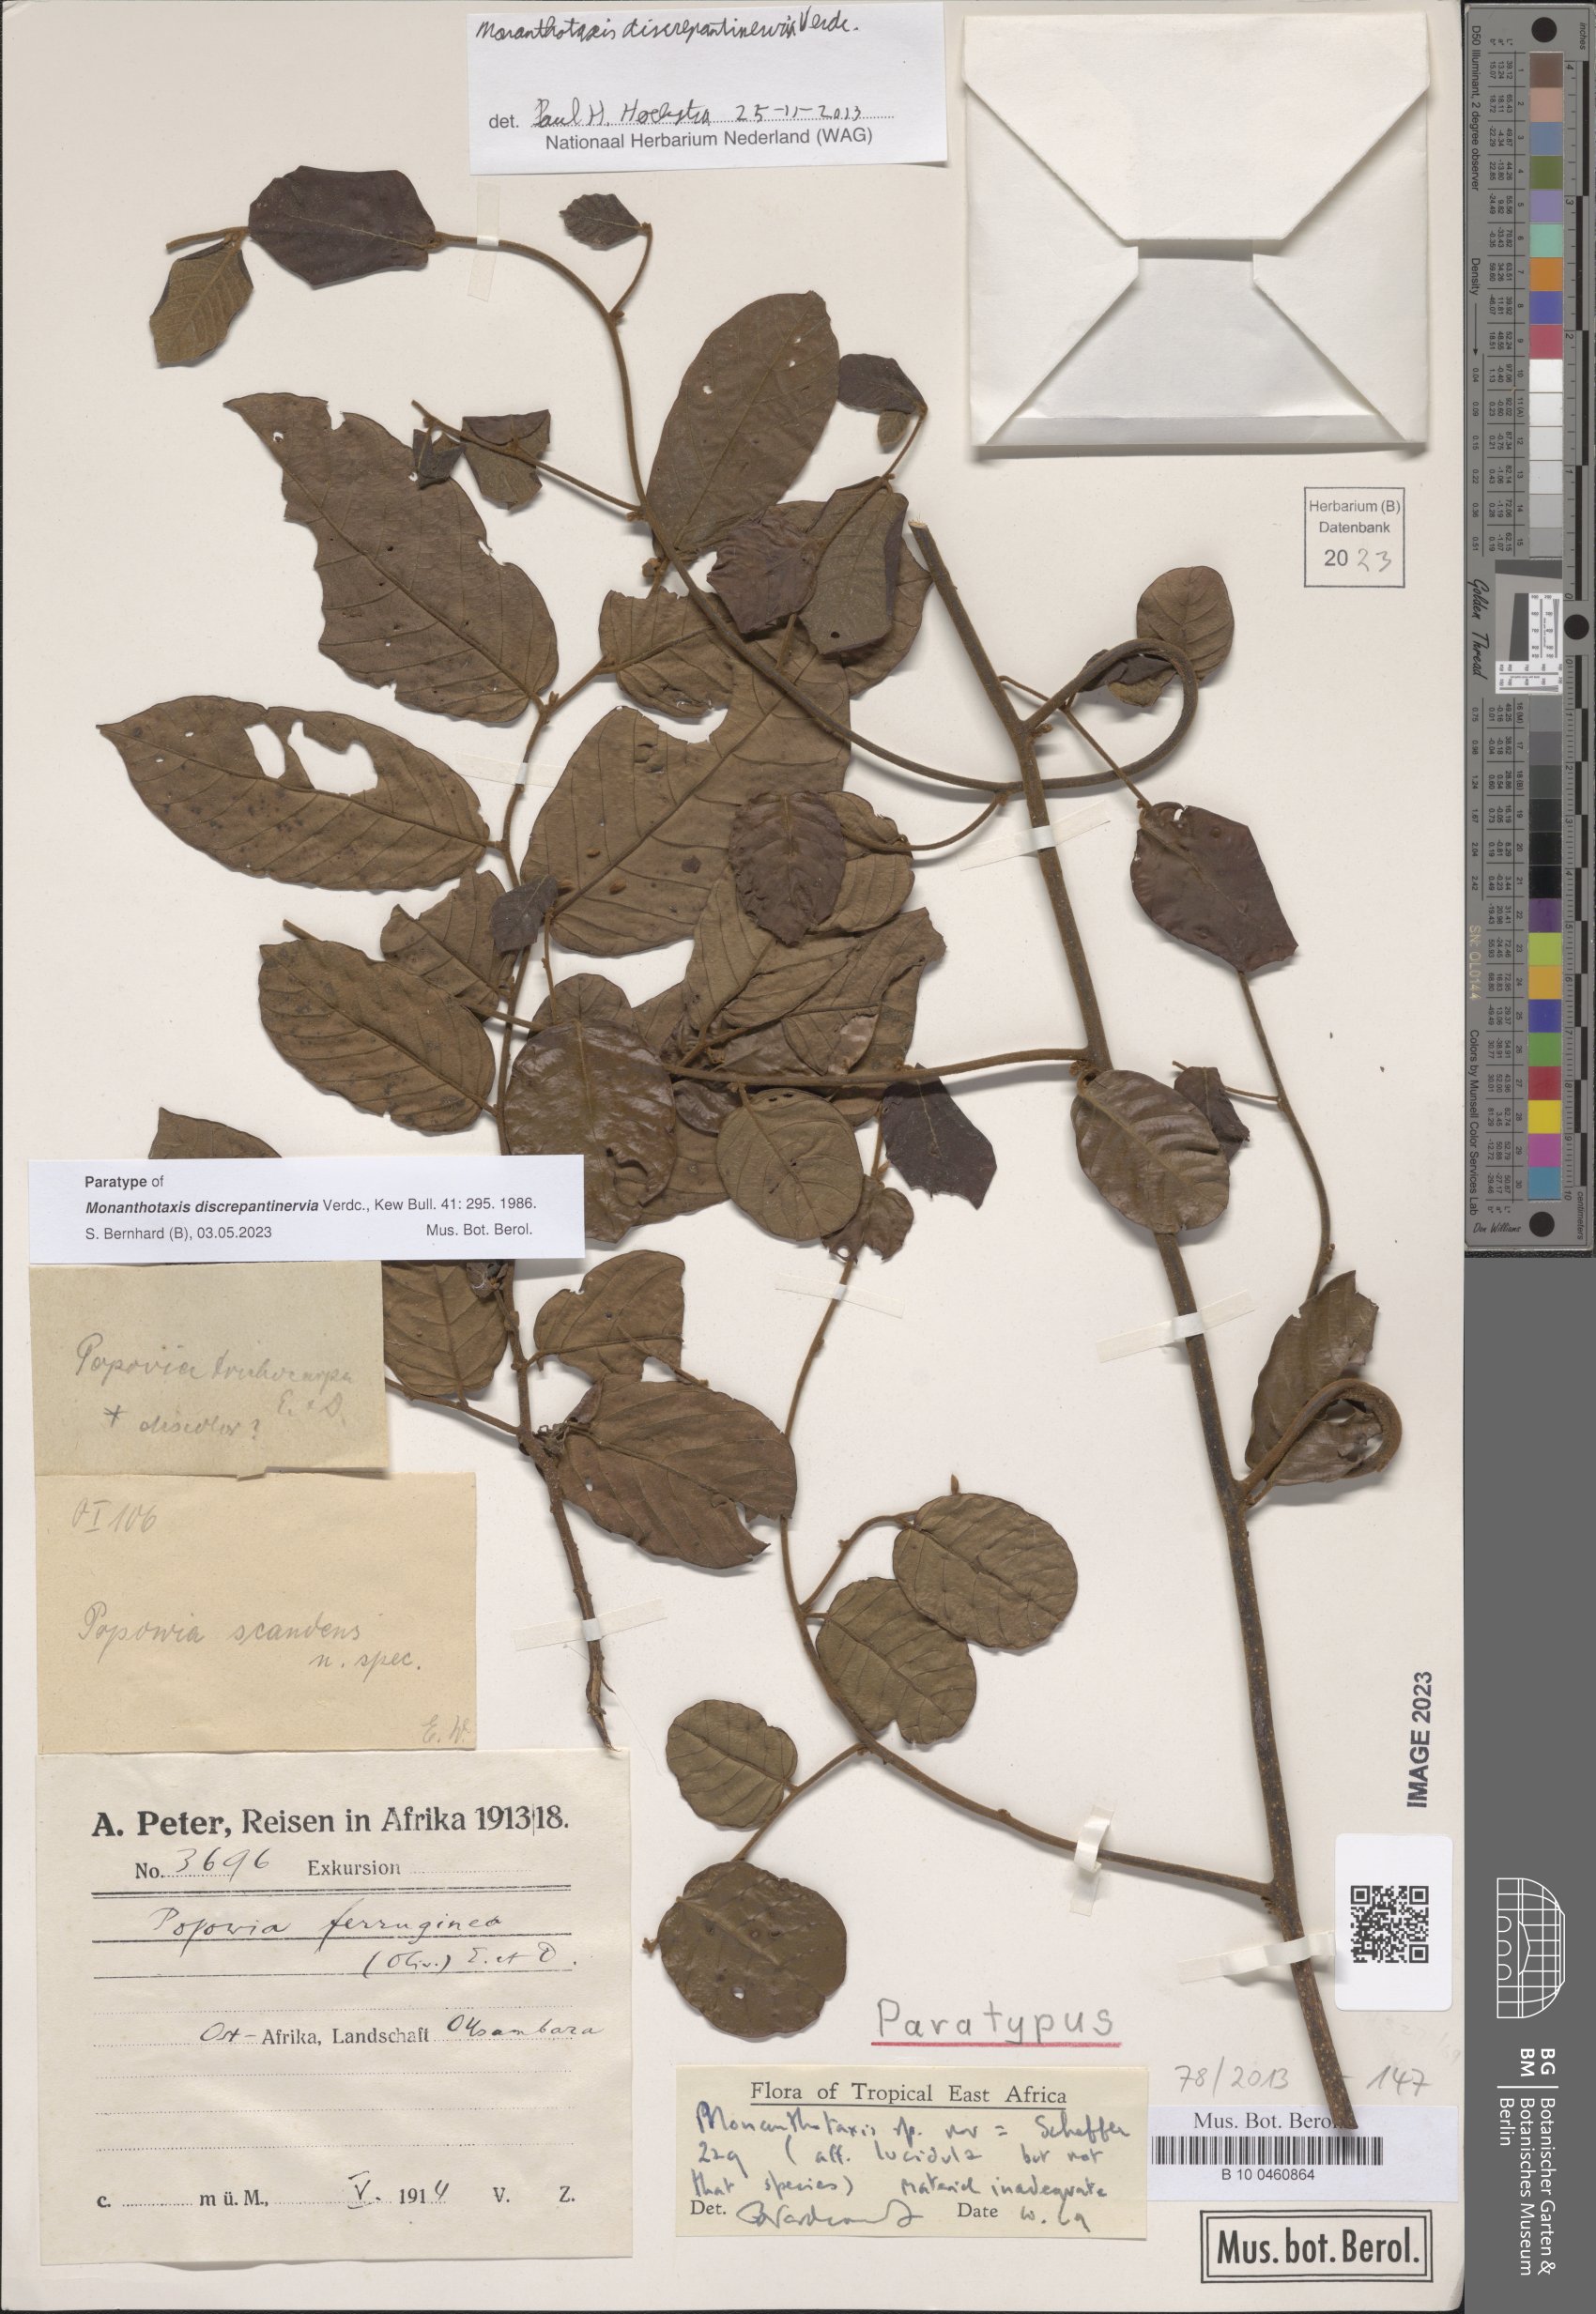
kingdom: Plantae
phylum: Tracheophyta
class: Magnoliopsida
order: Magnoliales
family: Annonaceae
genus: Monanthotaxis
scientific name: Monanthotaxis discrepantinervia
